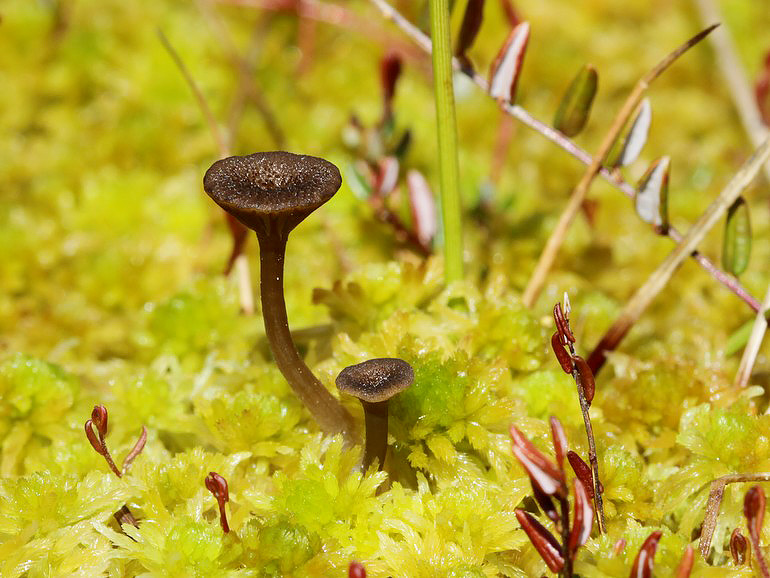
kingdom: Fungi
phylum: Basidiomycota
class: Agaricomycetes
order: Agaricales
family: Hygrophoraceae
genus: Arrhenia
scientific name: Arrhenia gerardiana
